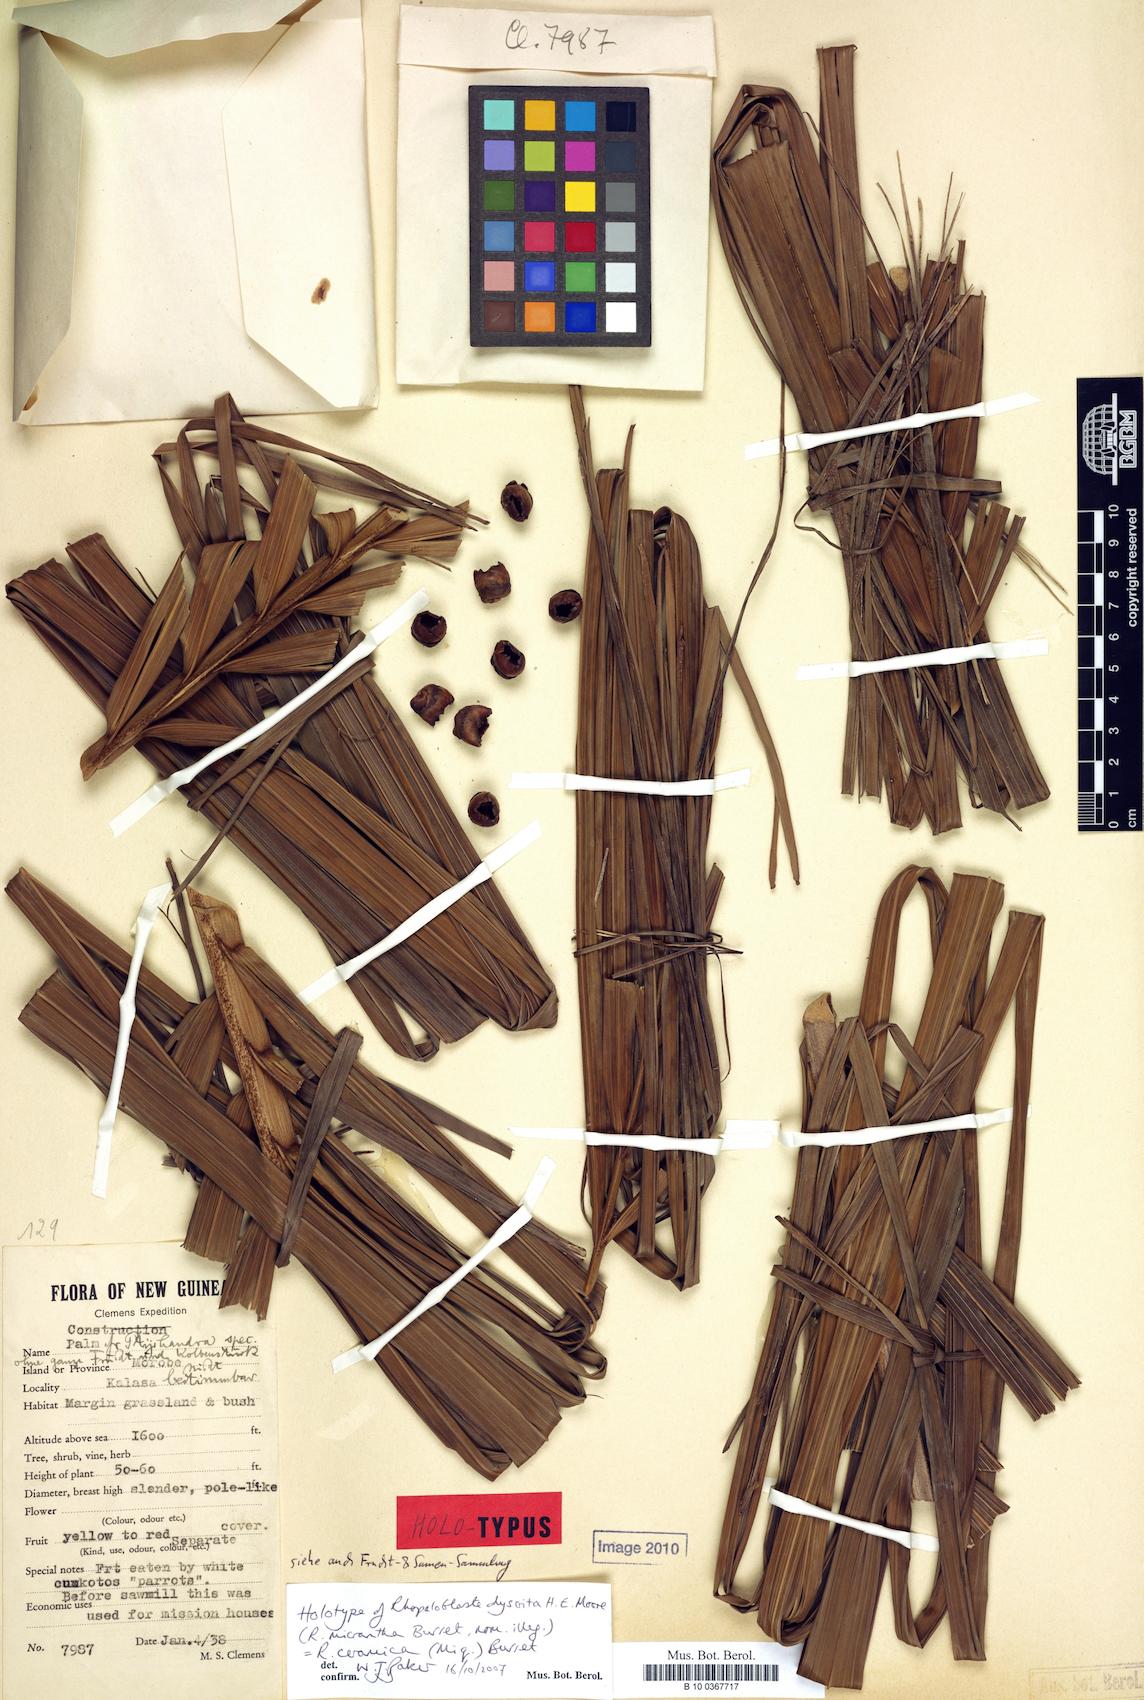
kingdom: Plantae
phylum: Tracheophyta
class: Liliopsida
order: Arecales
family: Arecaceae
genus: Rhopaloblaste
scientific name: Rhopaloblaste ceramica
